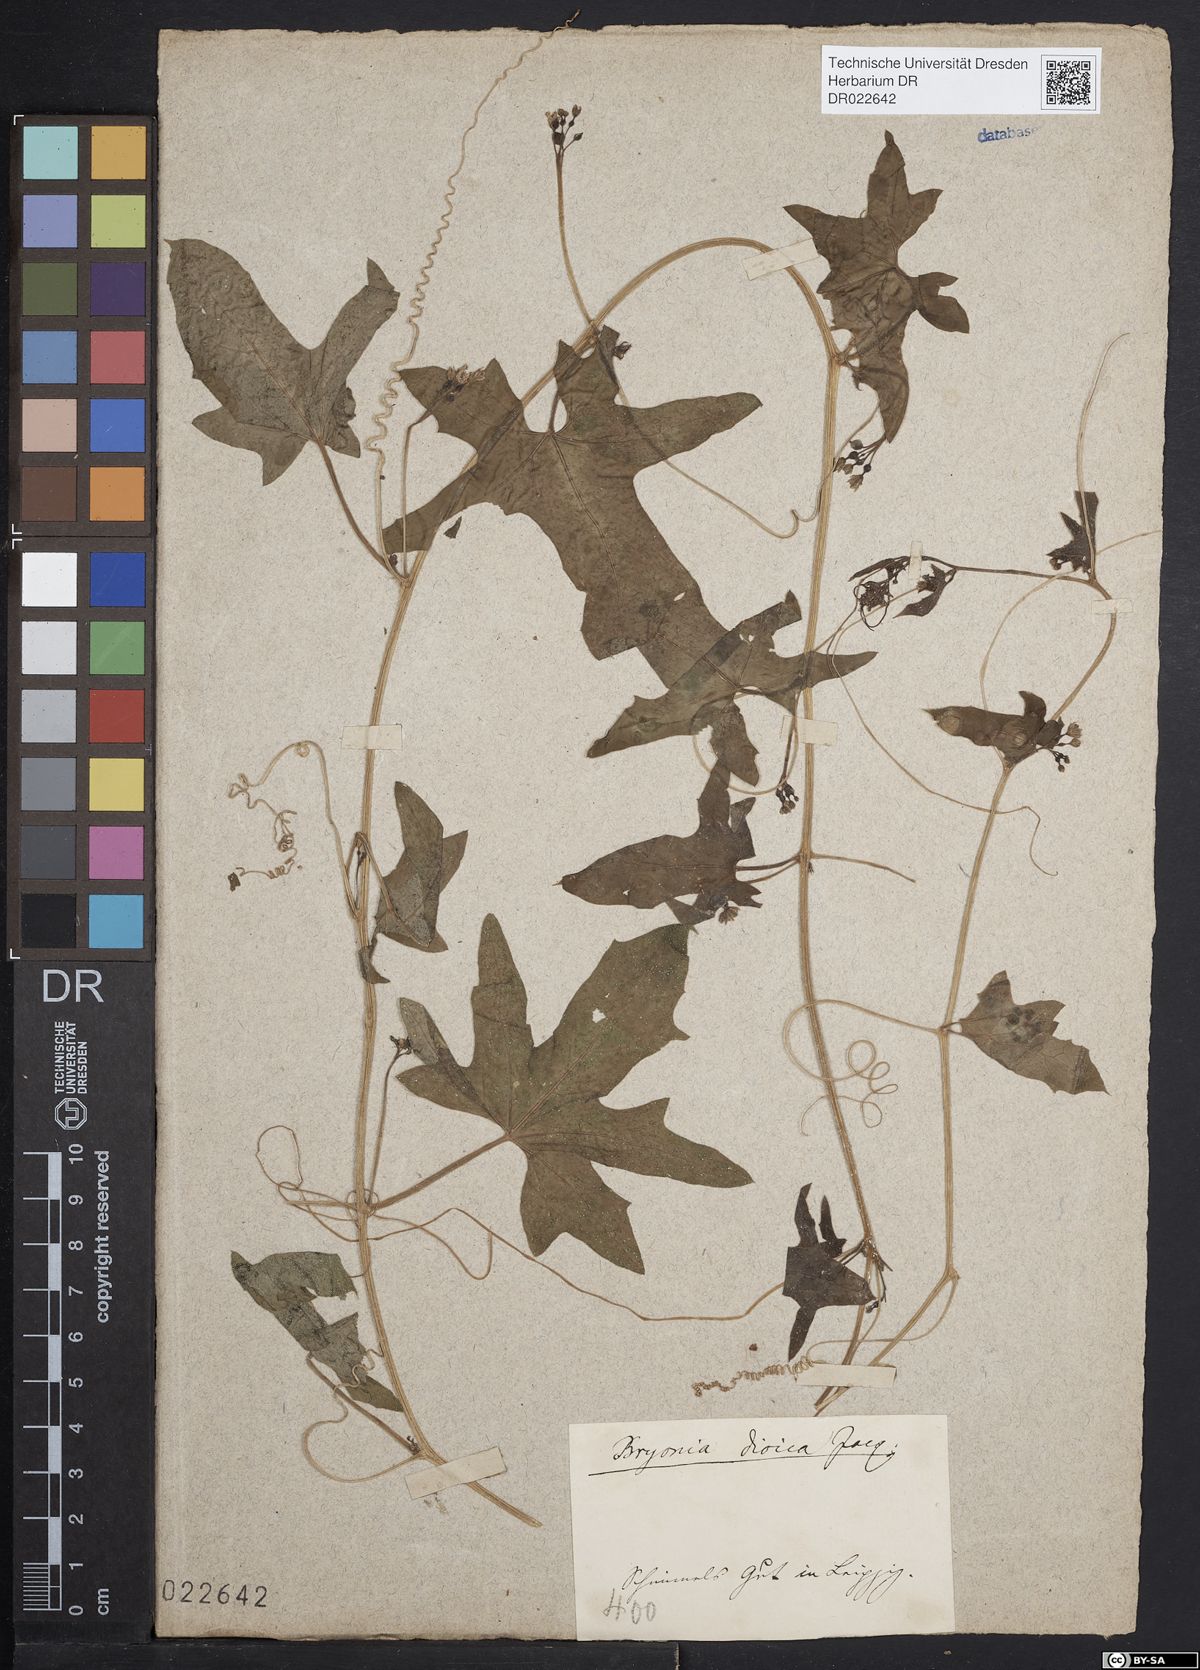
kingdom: Plantae
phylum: Tracheophyta
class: Magnoliopsida
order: Cucurbitales
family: Cucurbitaceae
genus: Bryonia
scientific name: Bryonia dioica
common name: White bryony
